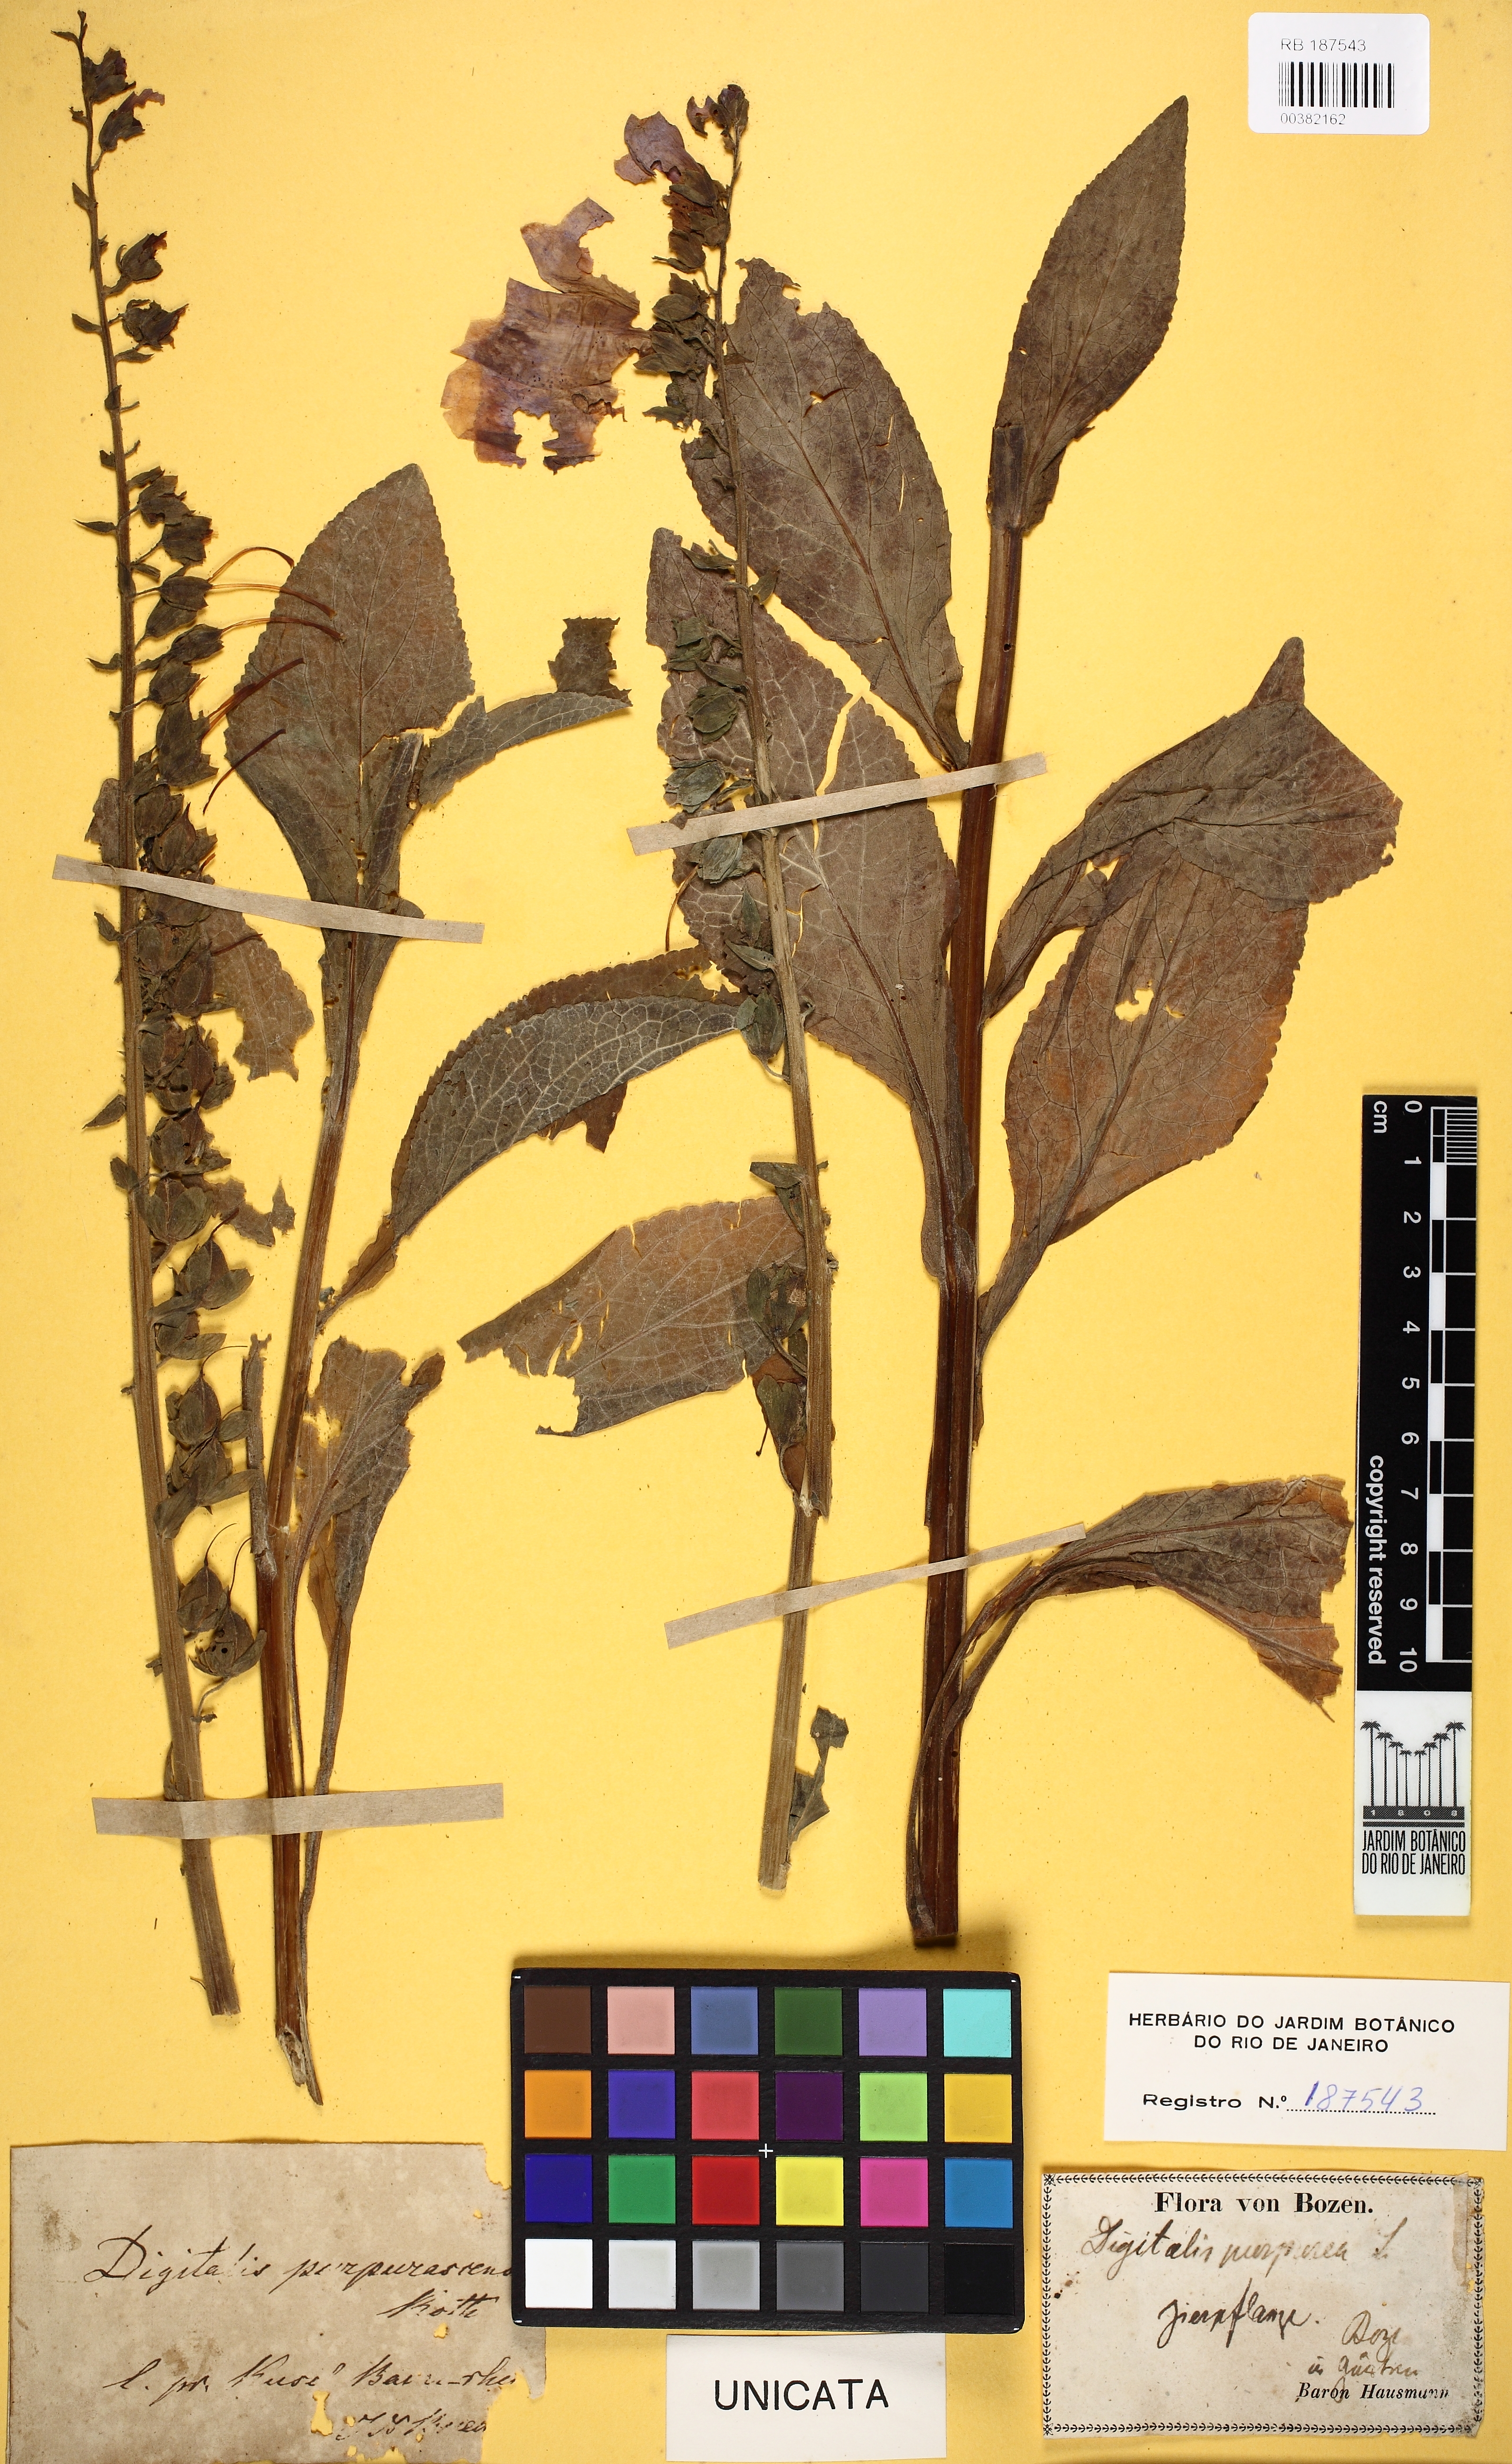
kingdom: Plantae
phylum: Tracheophyta
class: Magnoliopsida
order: Lamiales
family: Plantaginaceae
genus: Digitalis
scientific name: Digitalis purpurea
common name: Foxglove
